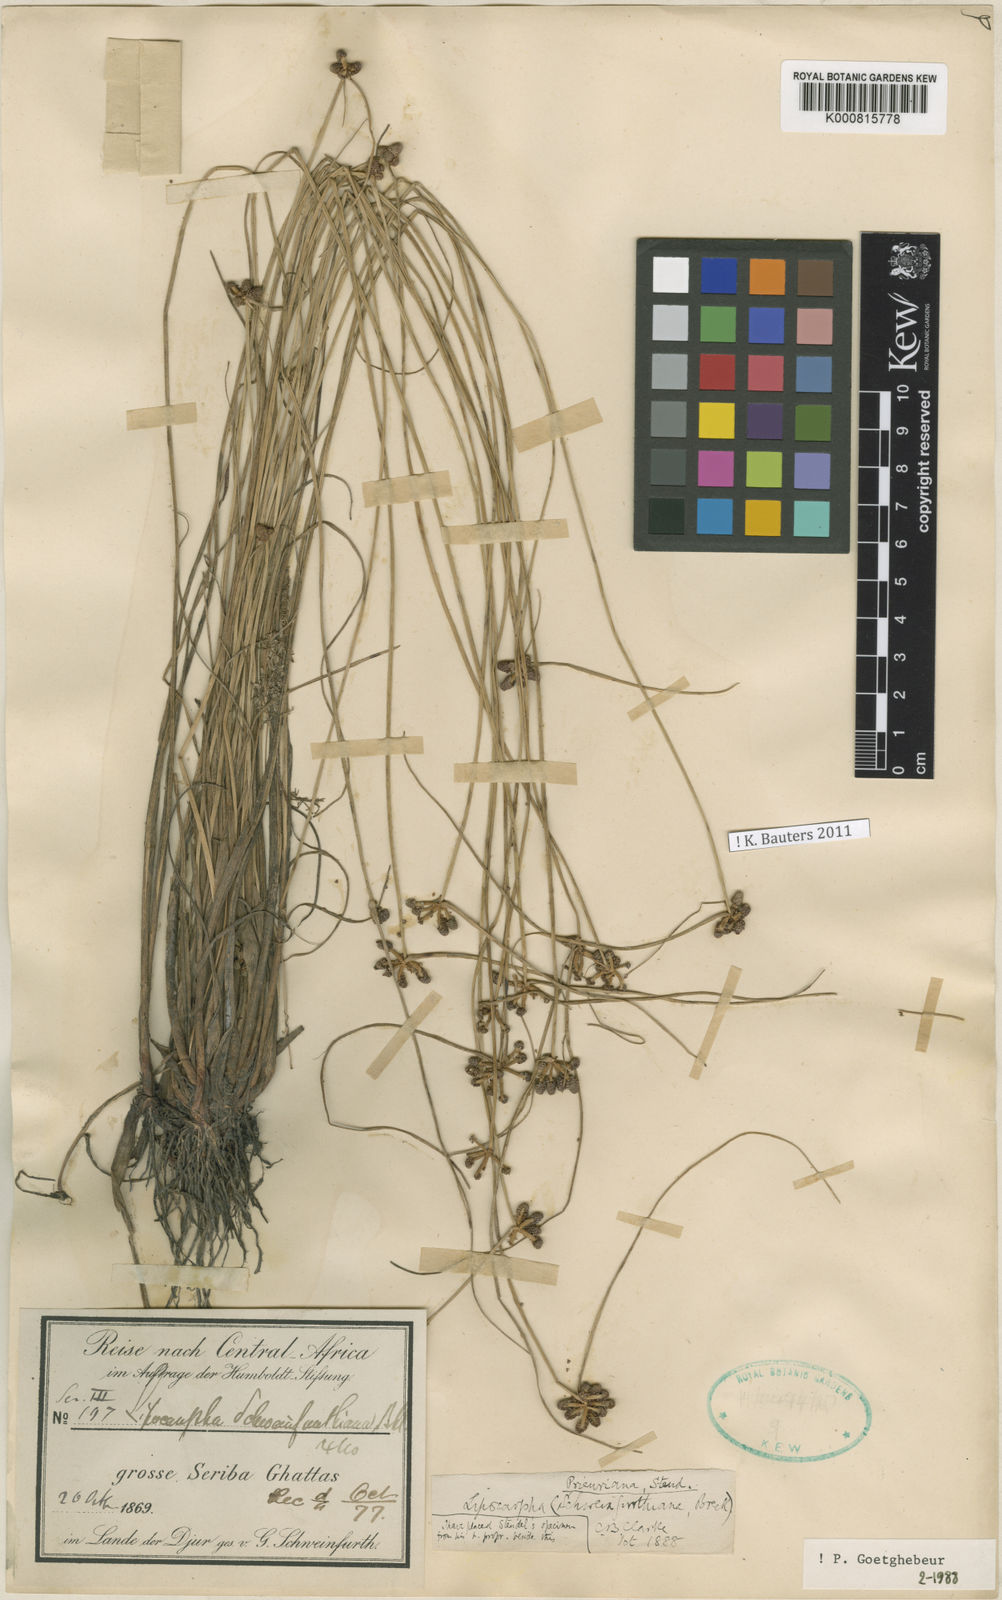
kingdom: Plantae
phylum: Tracheophyta
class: Liliopsida
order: Poales
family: Cyperaceae
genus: Cyperus
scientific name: Cyperus prieurianus
